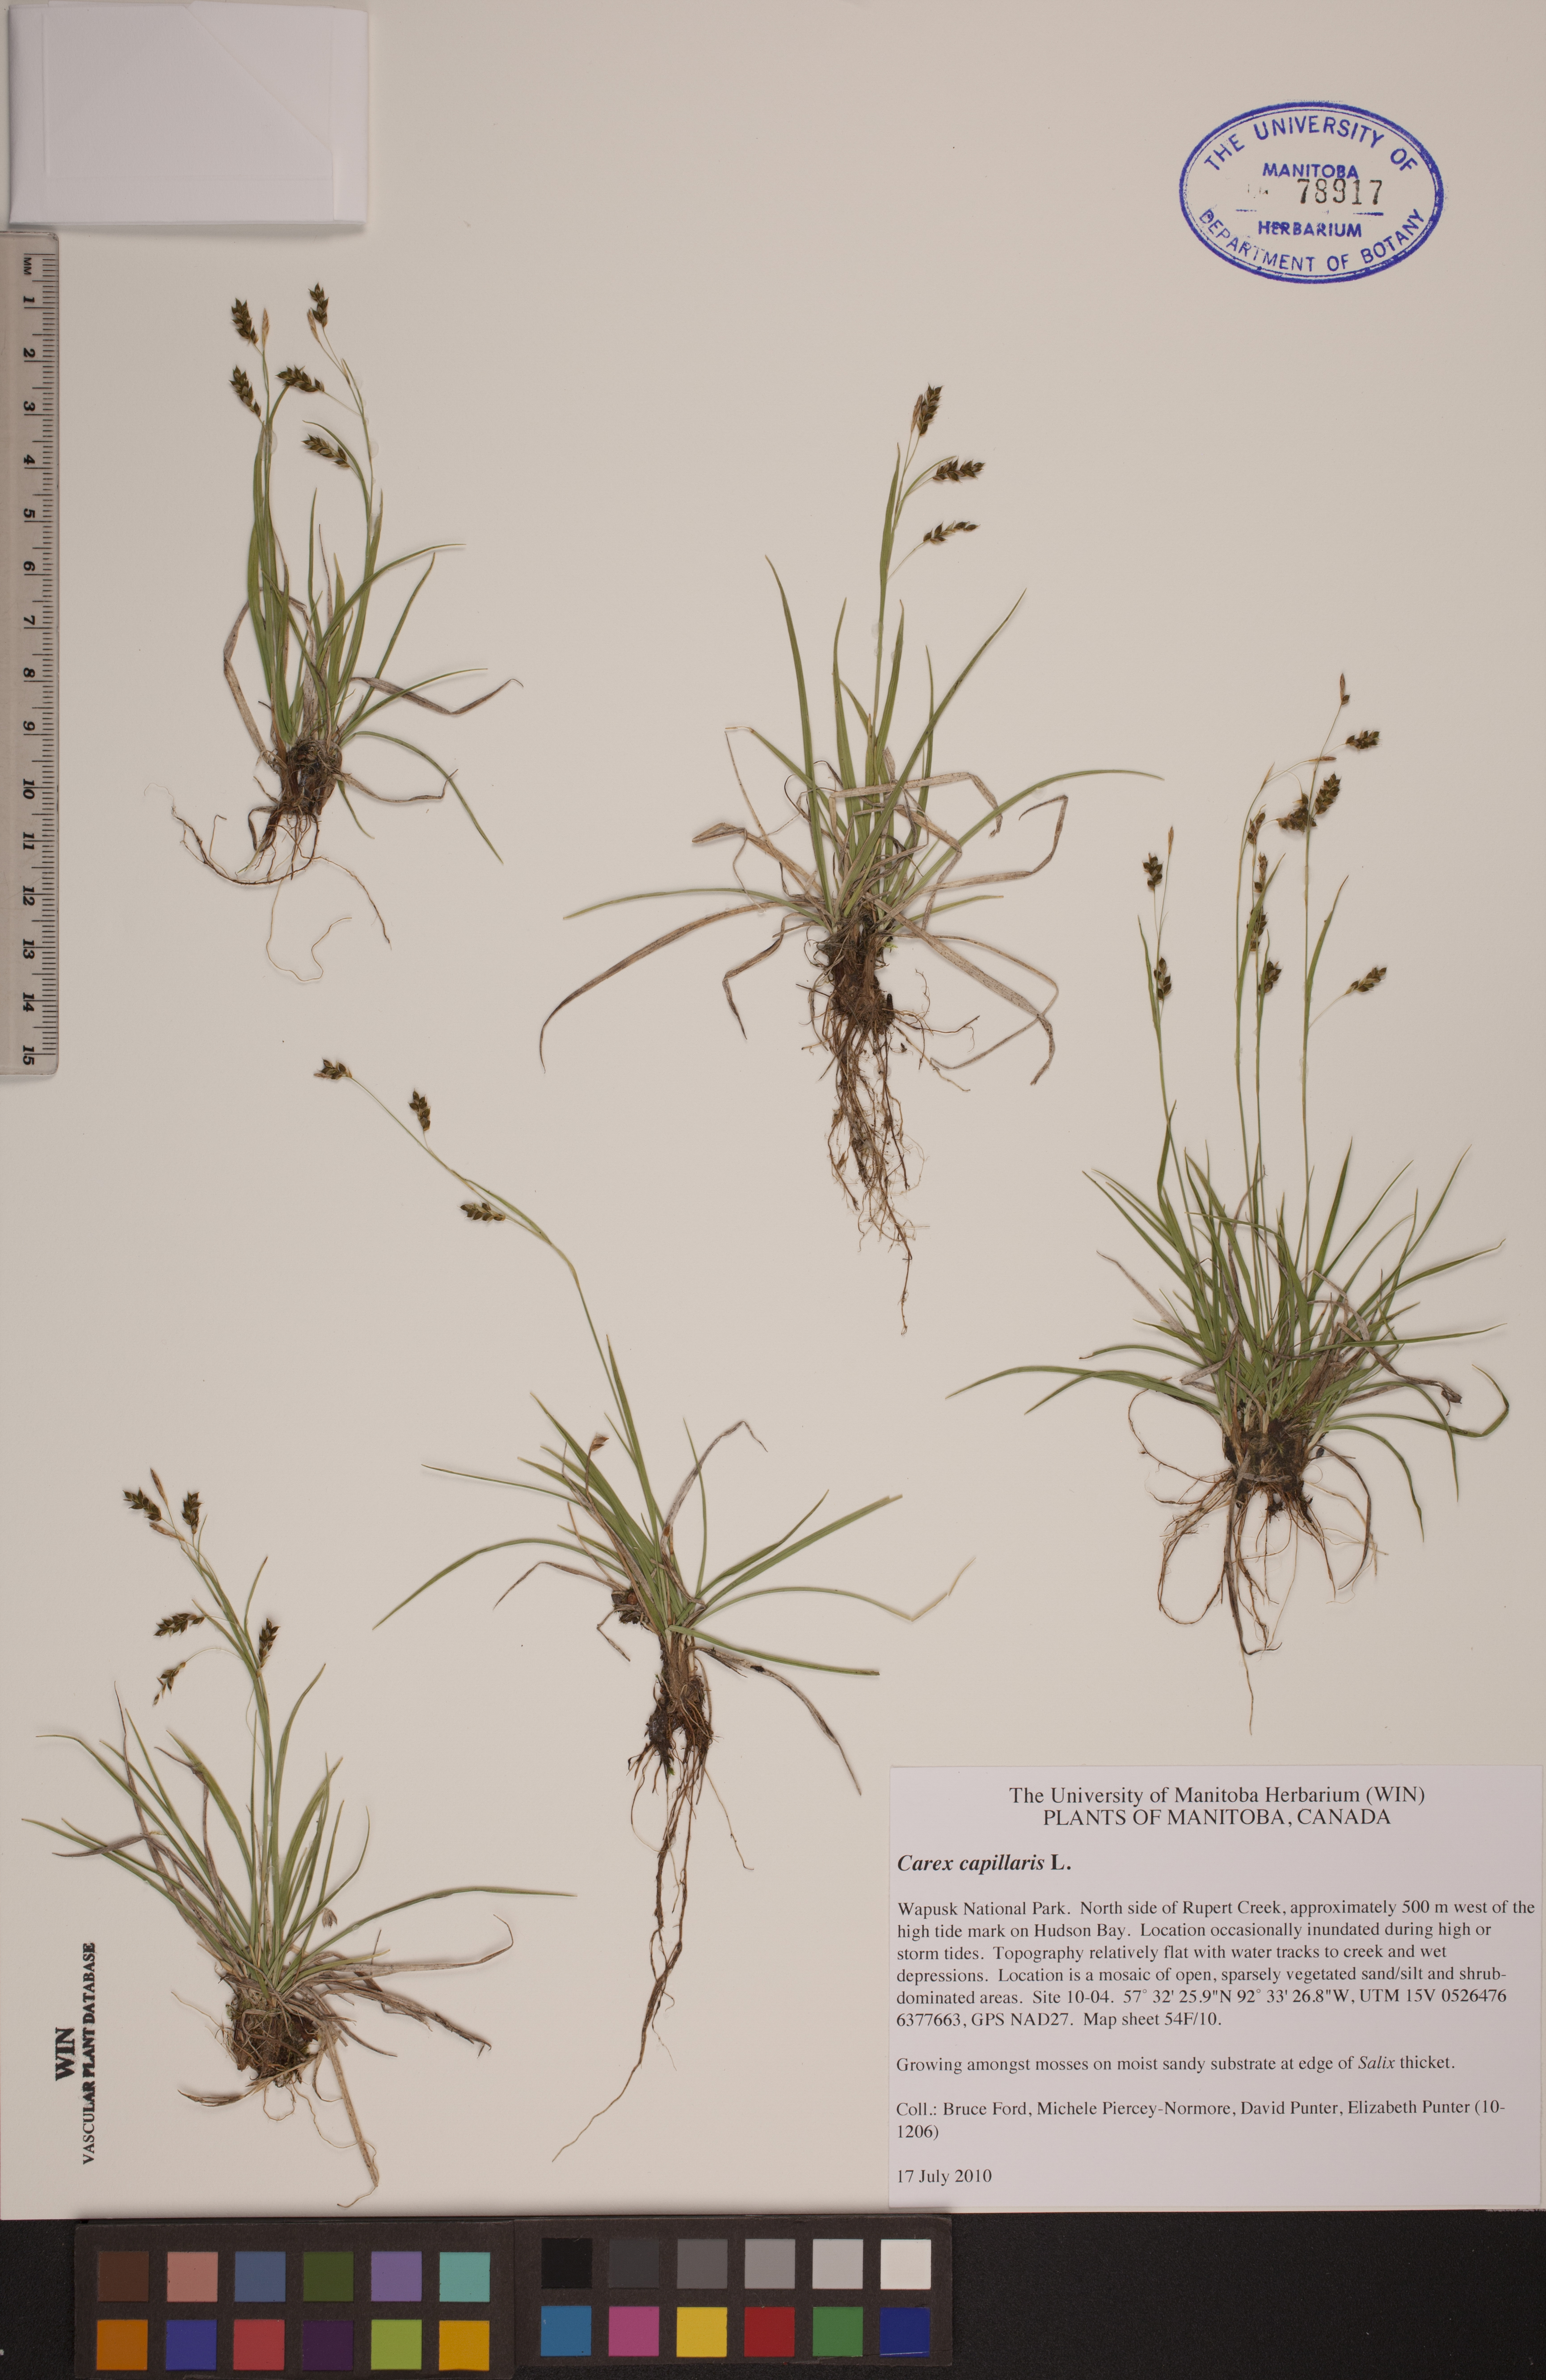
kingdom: Plantae
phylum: Tracheophyta
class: Liliopsida
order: Poales
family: Cyperaceae
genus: Carex
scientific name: Carex capillaris
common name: Hair sedge
